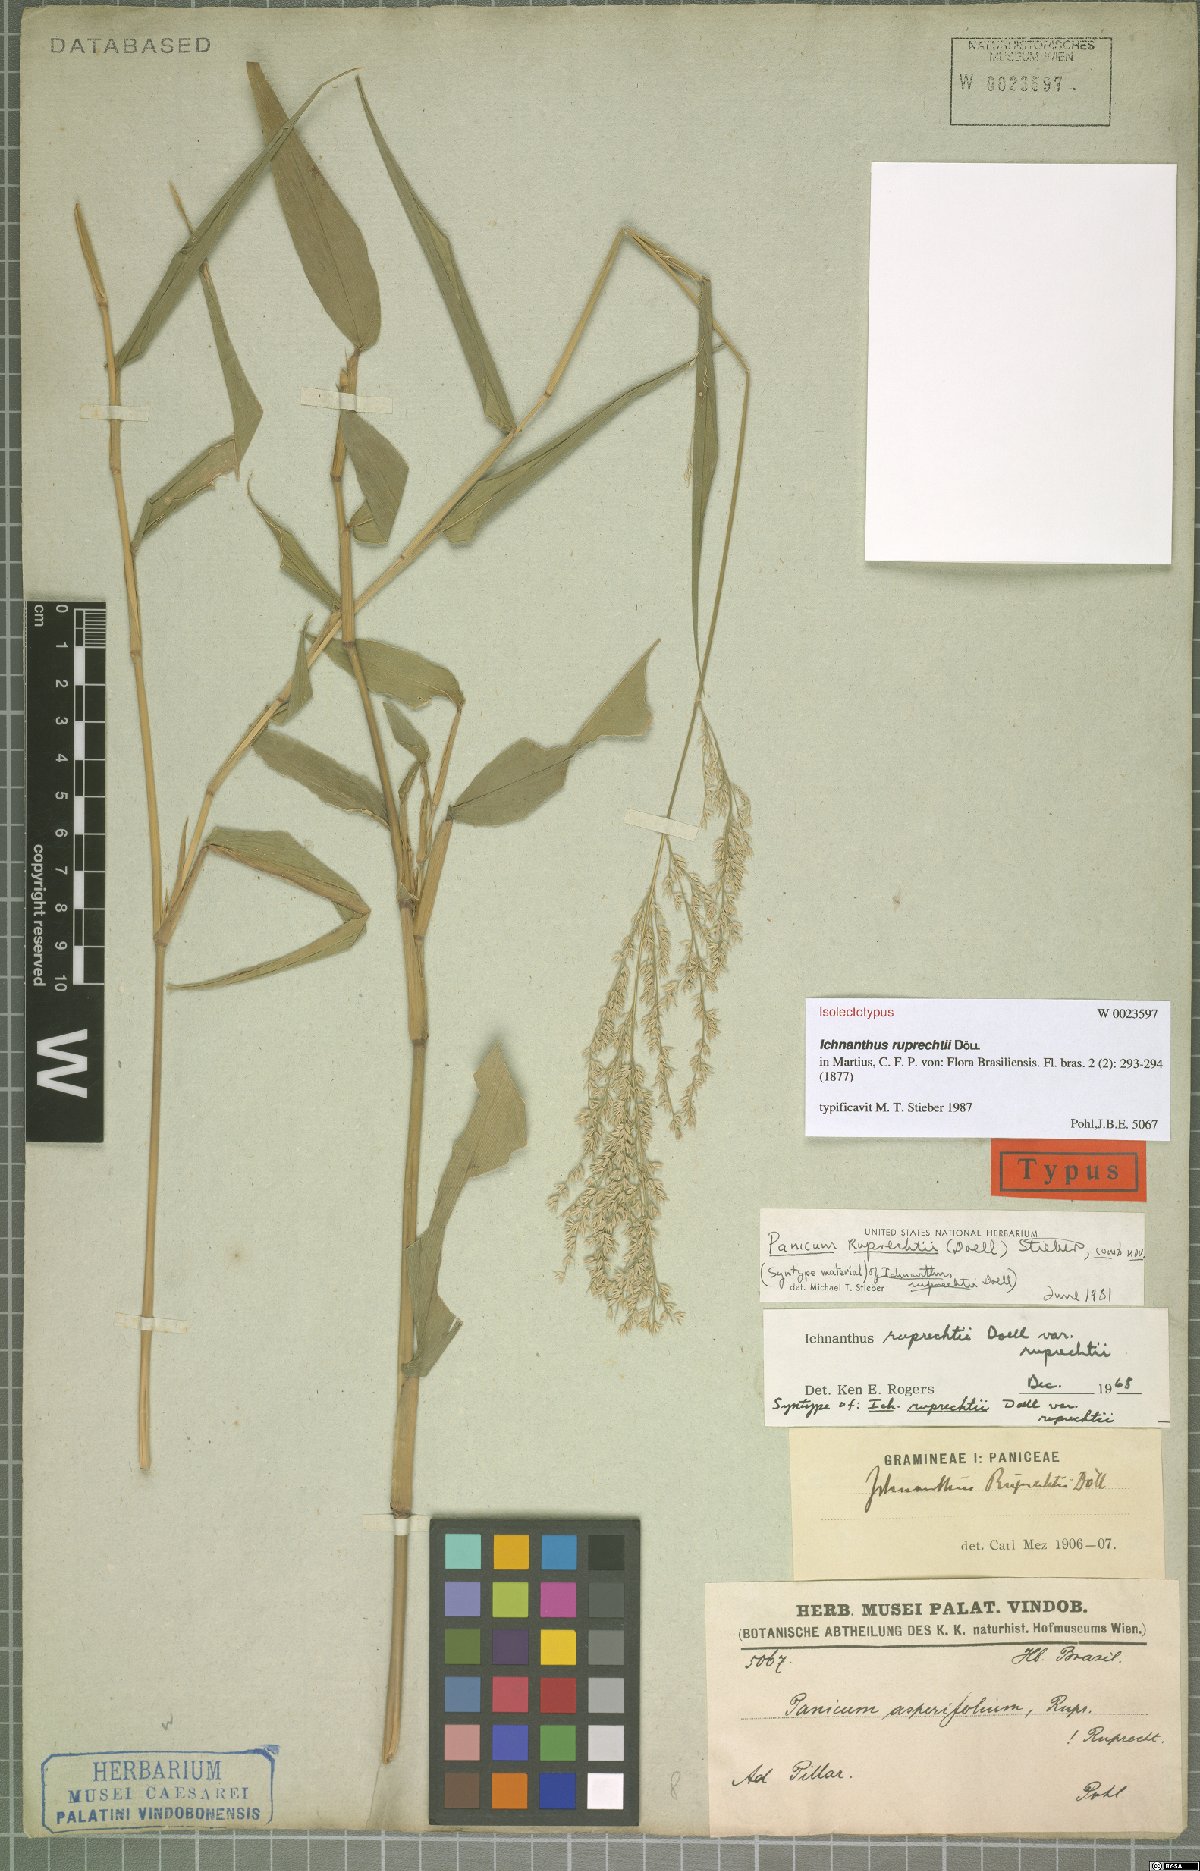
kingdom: Plantae
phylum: Tracheophyta
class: Liliopsida
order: Poales
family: Poaceae
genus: Ichnanthus
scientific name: Ichnanthus ruprechtii
